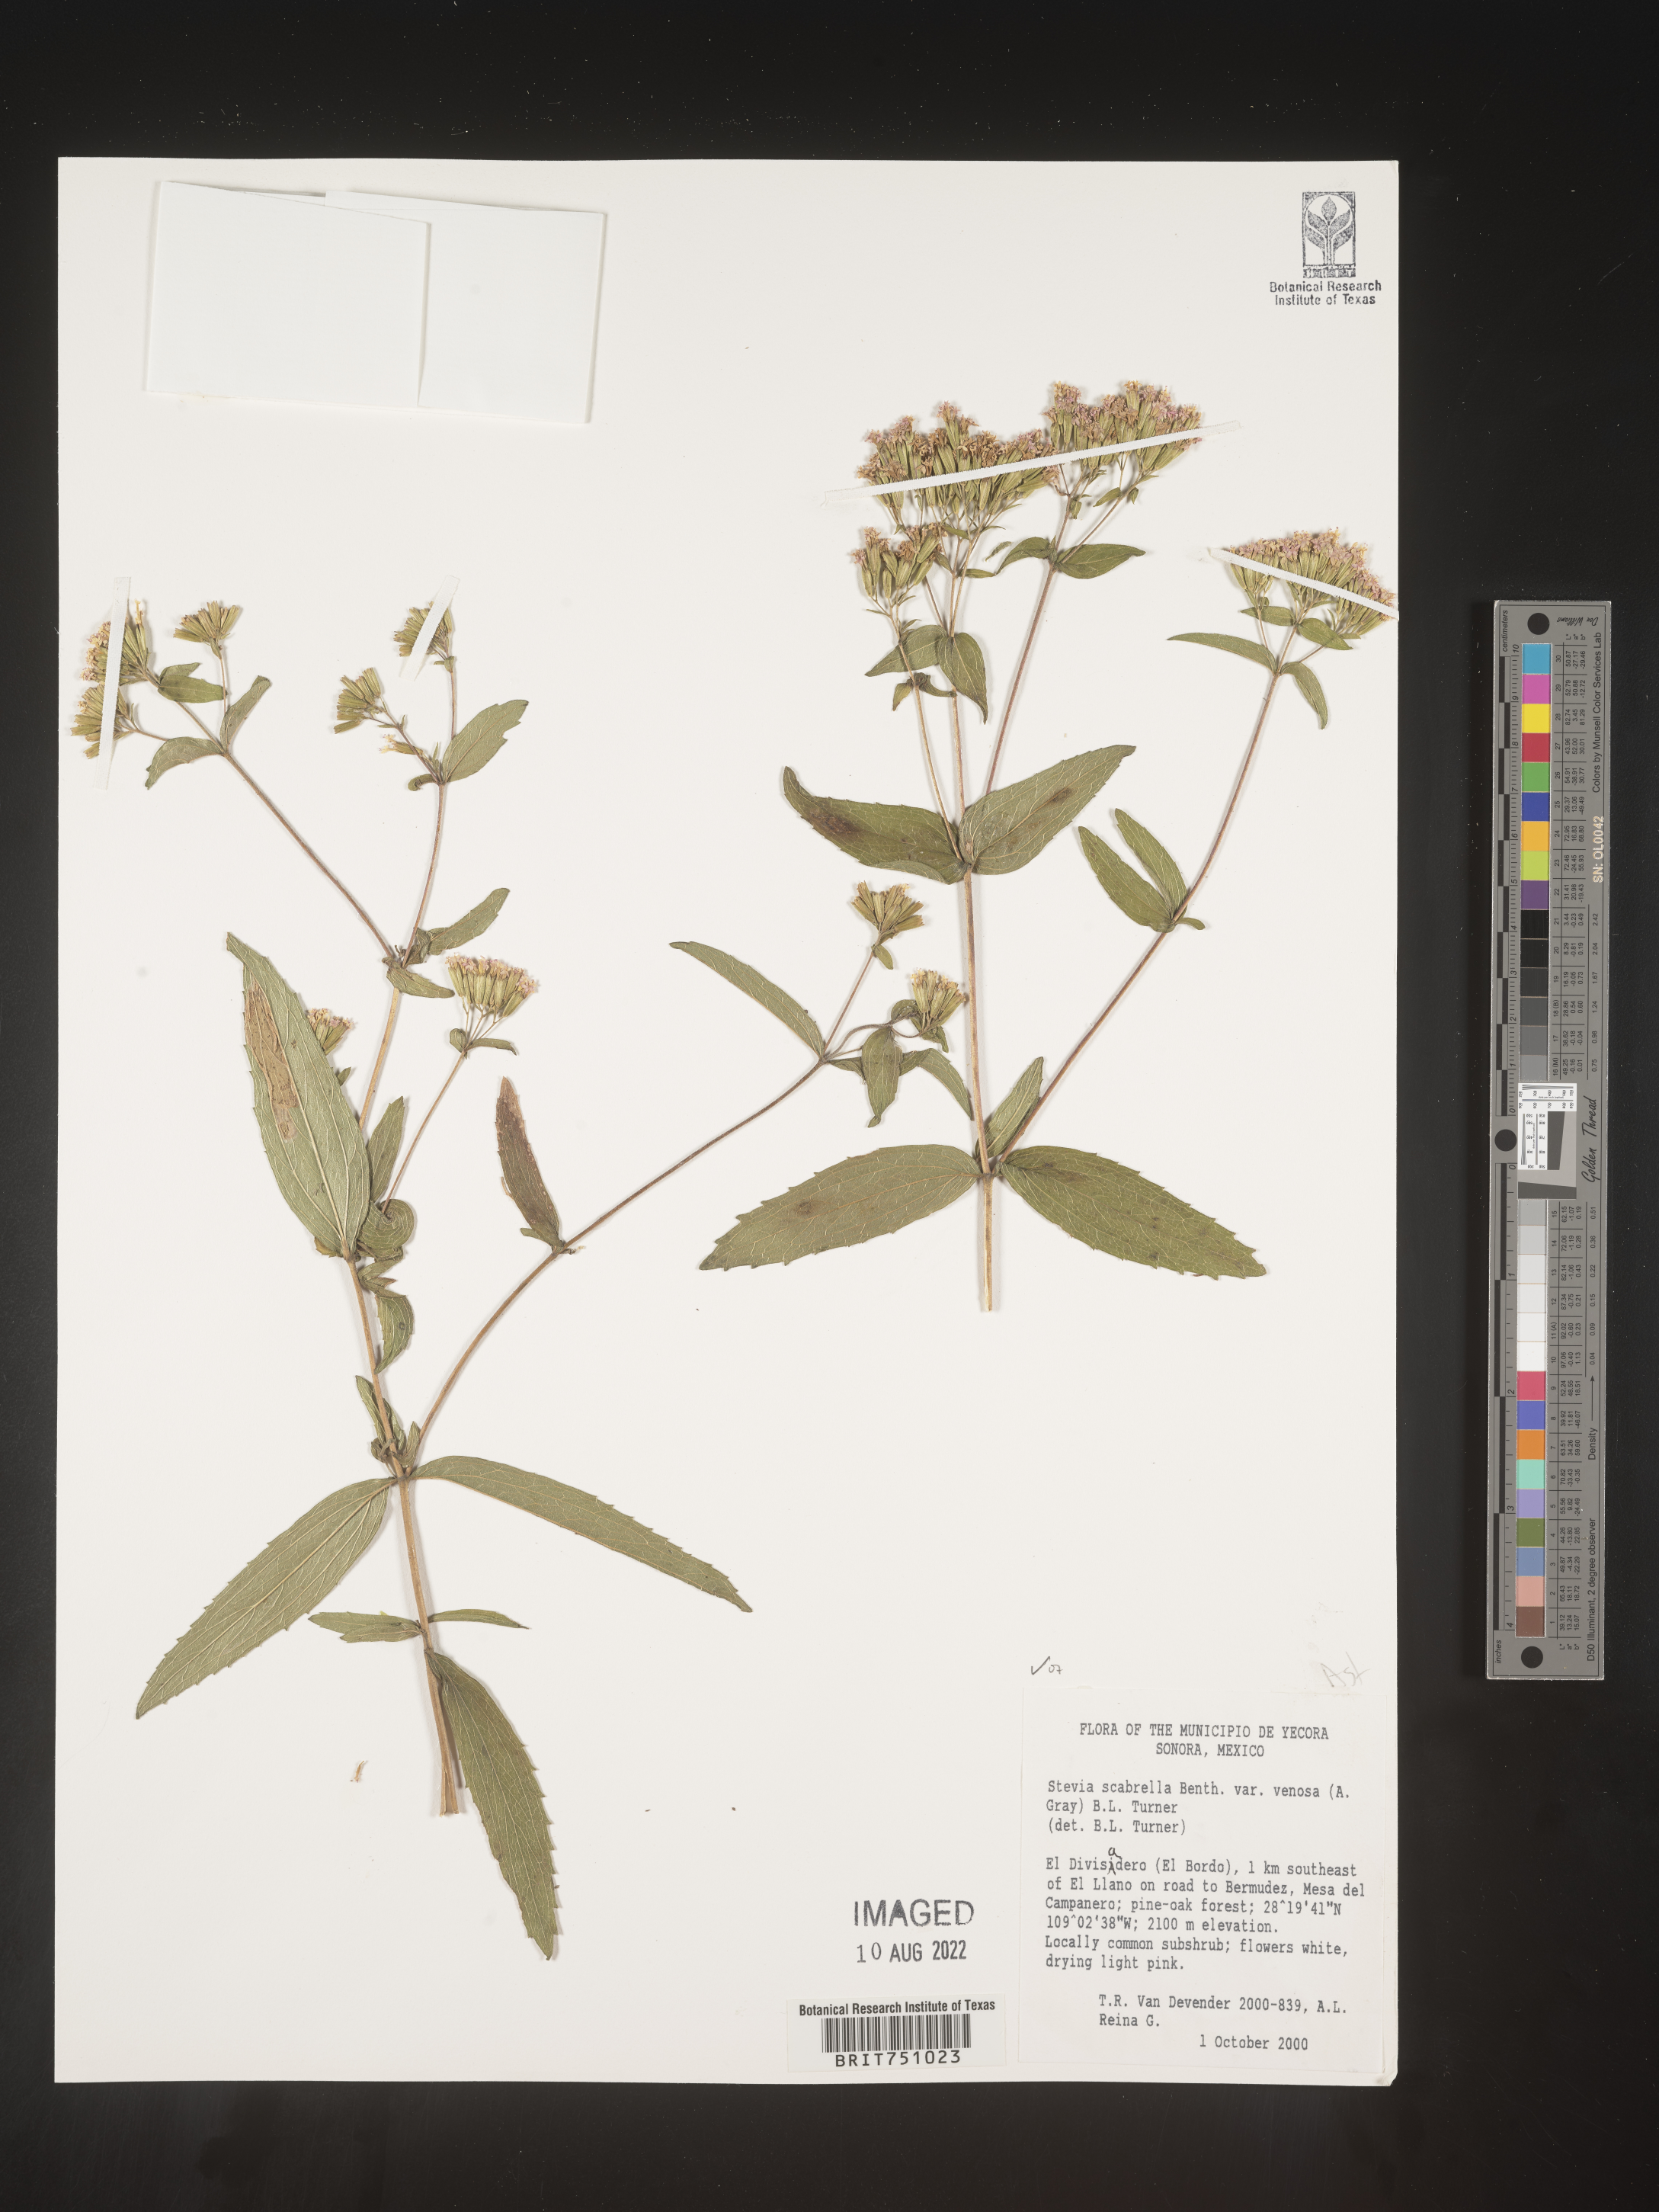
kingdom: Plantae
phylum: Tracheophyta
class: Magnoliopsida
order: Asterales
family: Asteraceae
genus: Stevia
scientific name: Stevia scabrella
